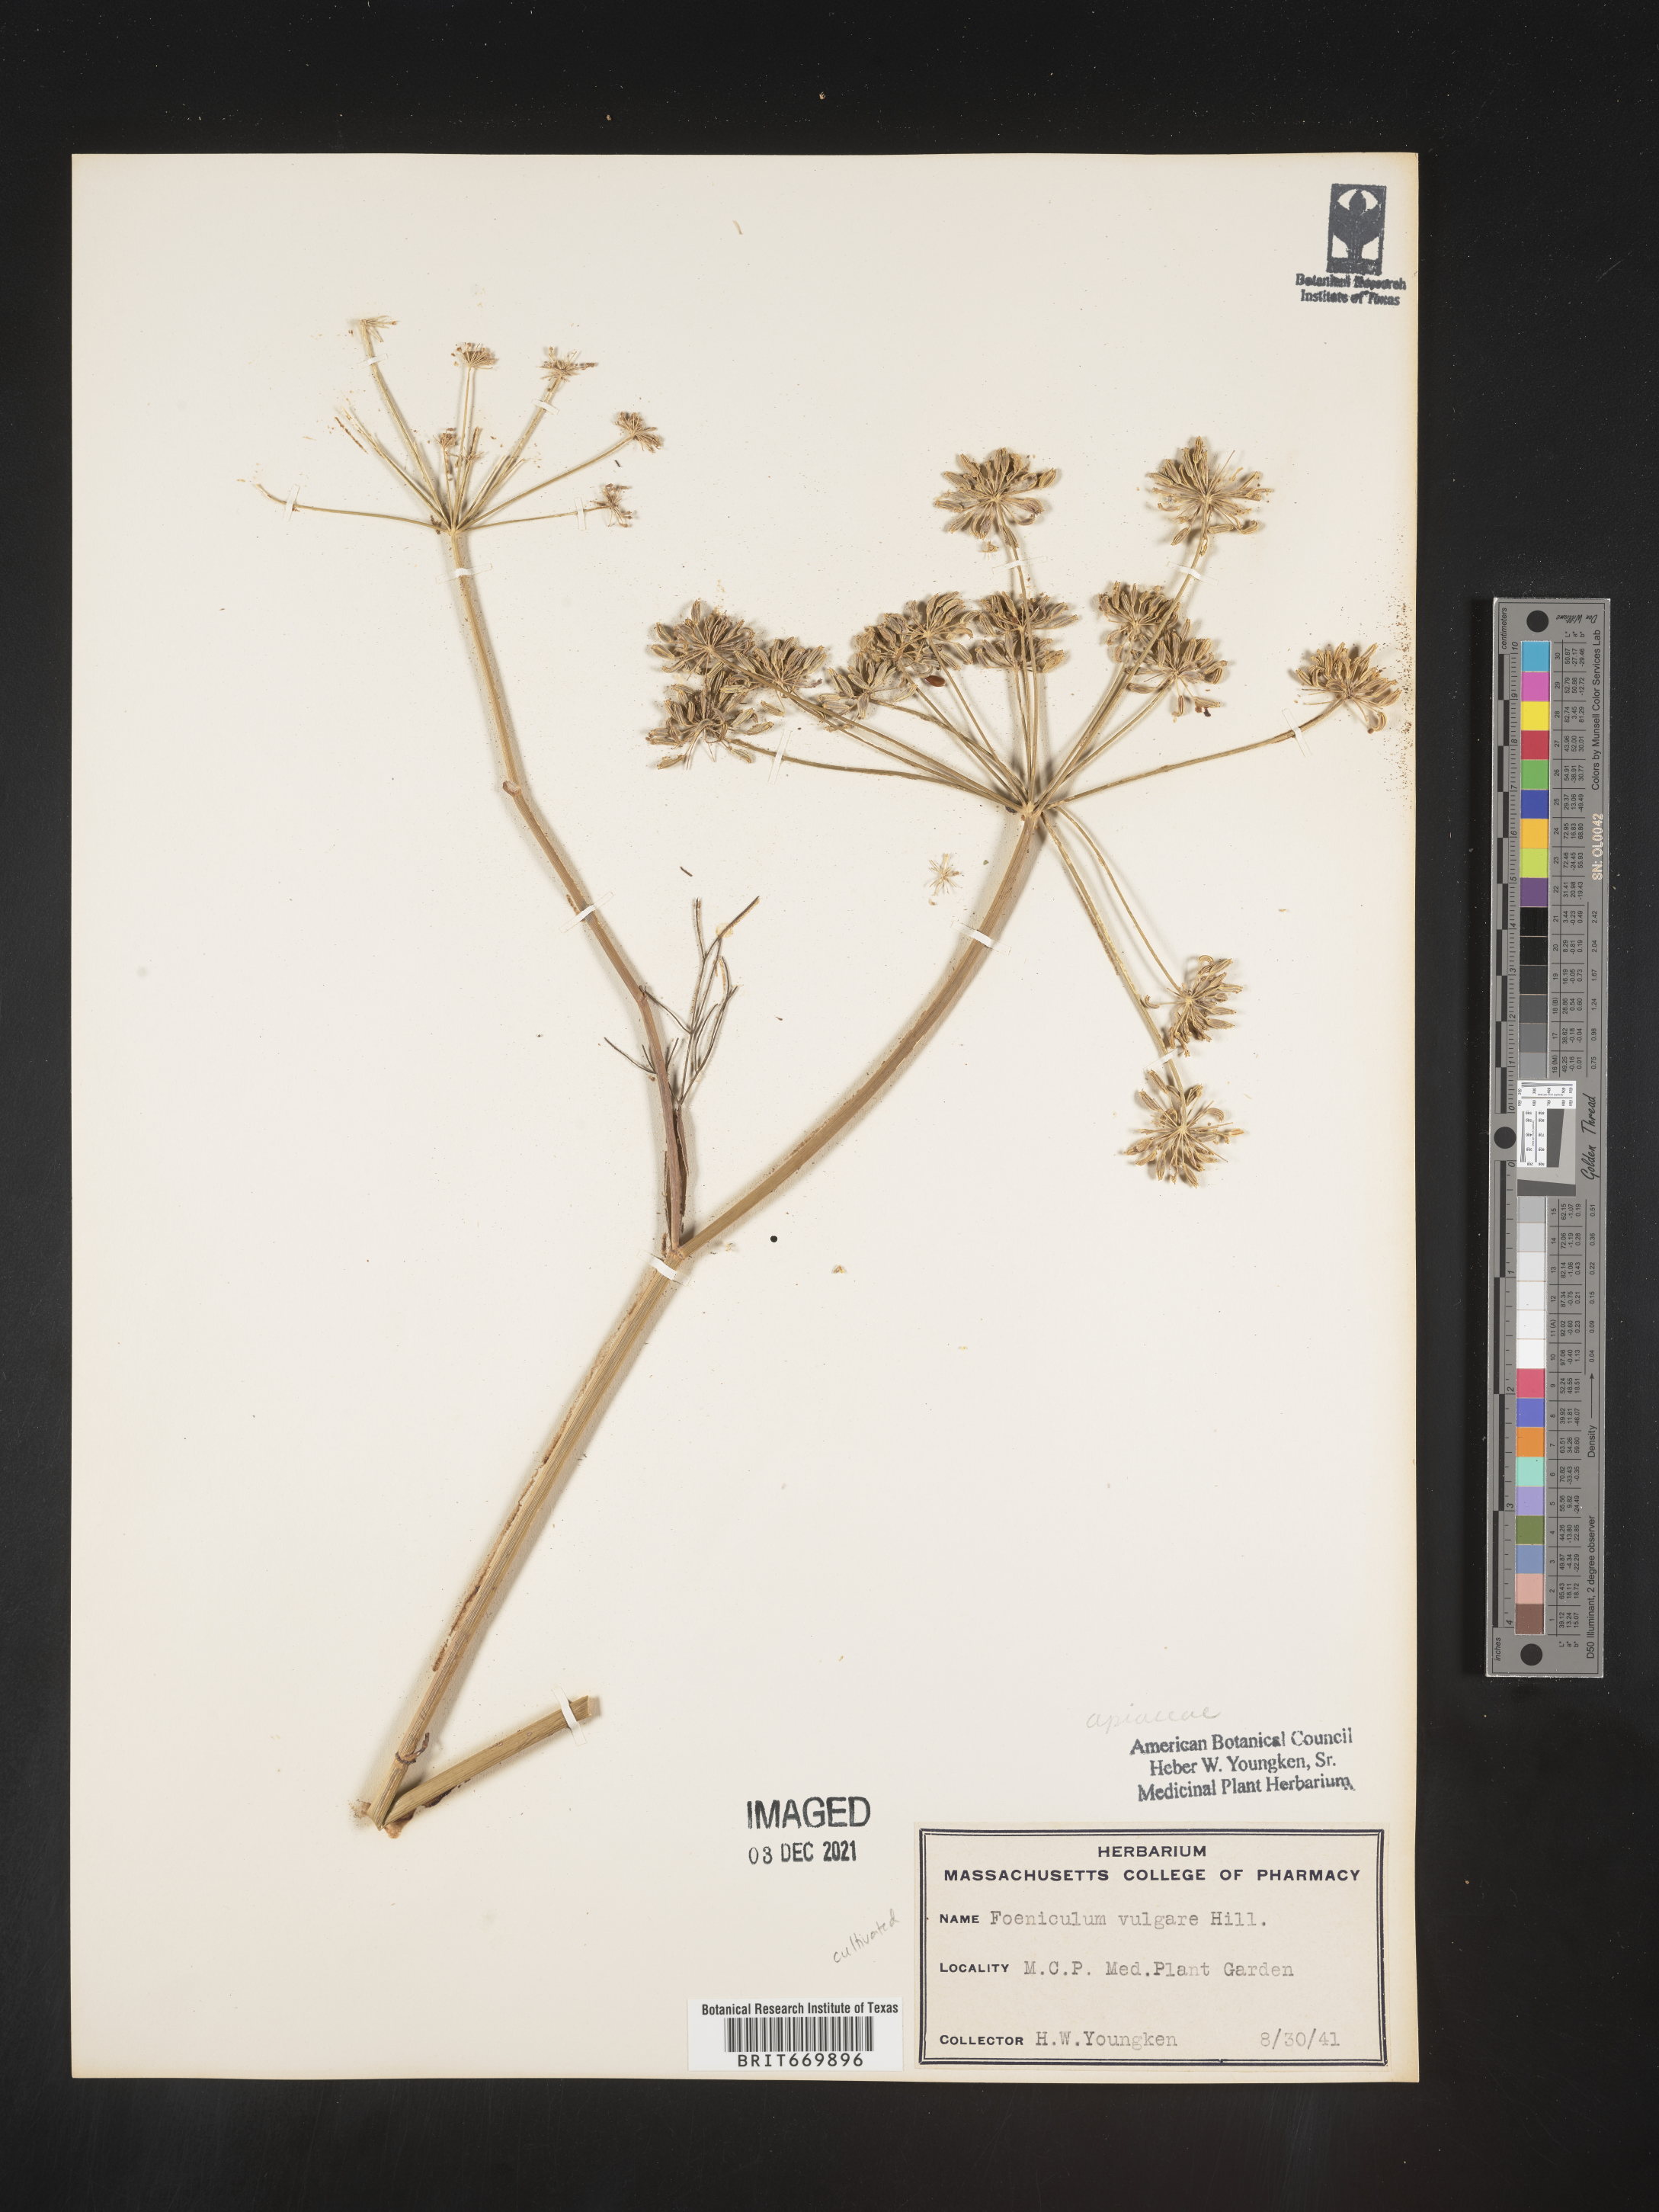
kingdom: Plantae
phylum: Tracheophyta
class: Magnoliopsida
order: Apiales
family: Apiaceae
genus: Foeniculum
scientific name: Foeniculum
